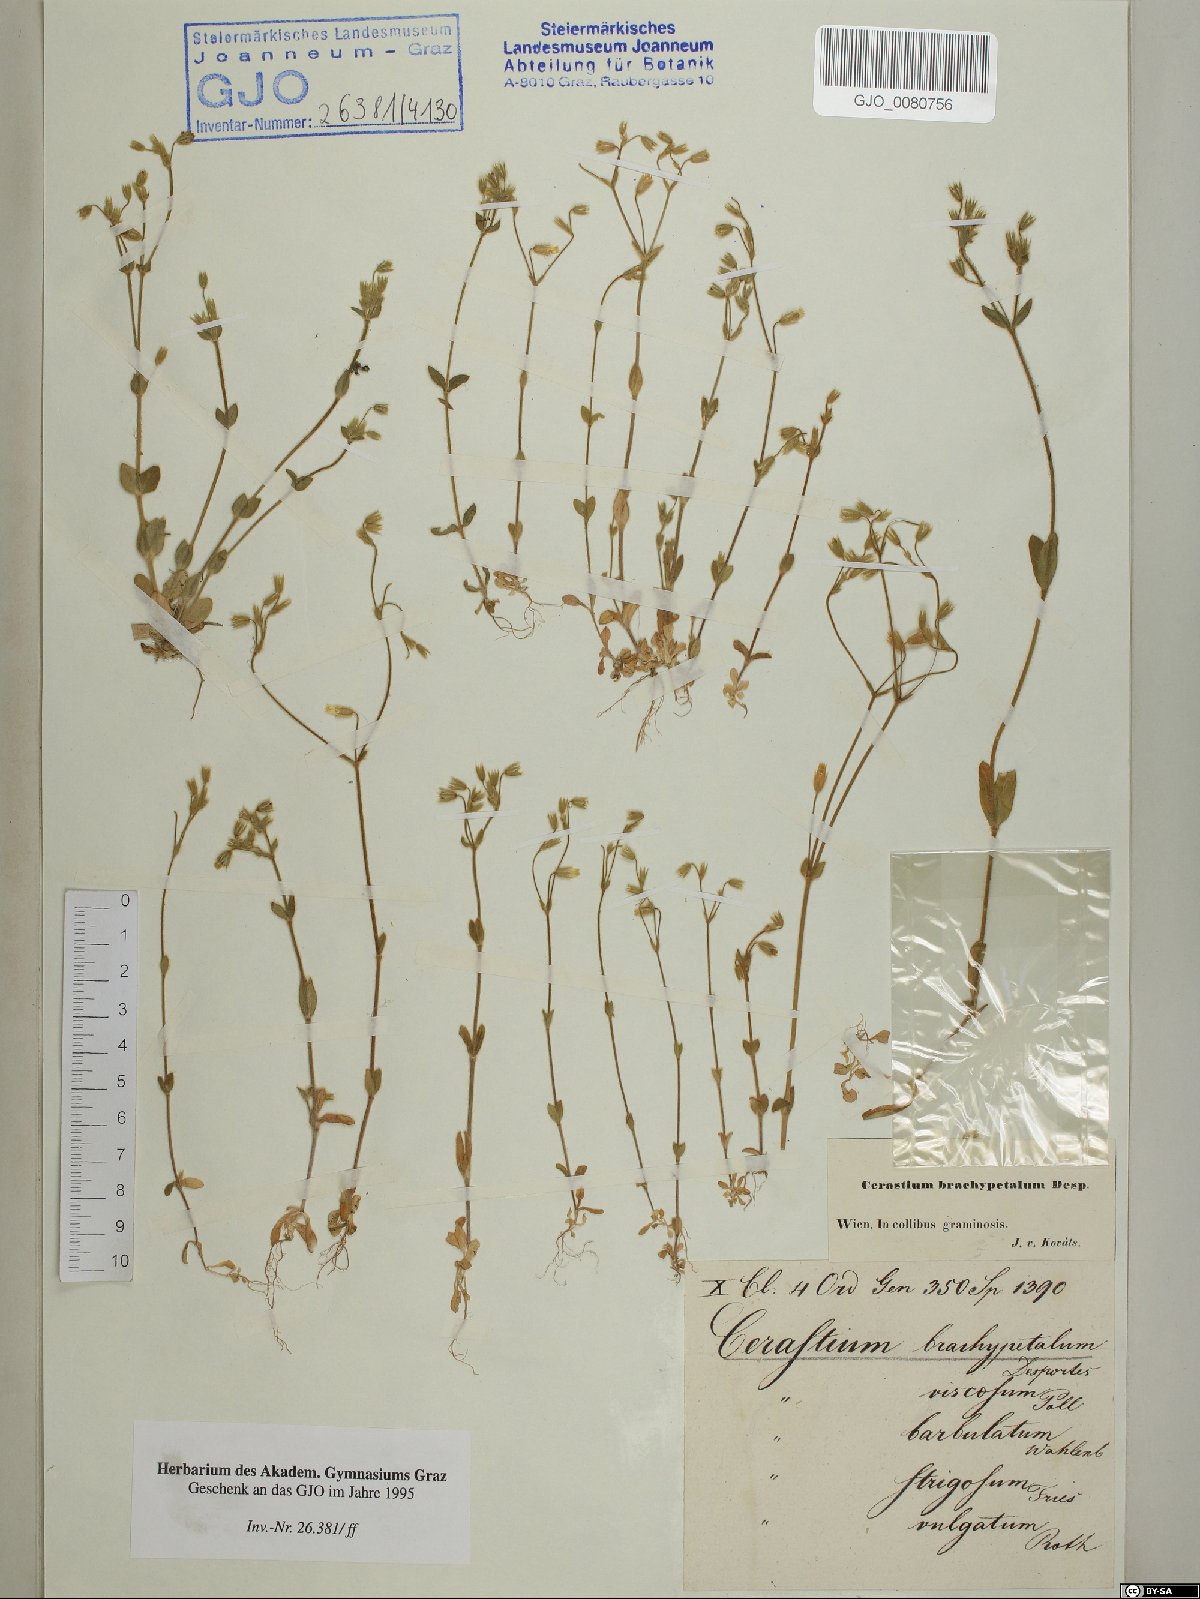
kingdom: Plantae
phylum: Tracheophyta
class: Magnoliopsida
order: Caryophyllales
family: Caryophyllaceae
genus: Cerastium
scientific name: Cerastium brachypetalum
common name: Grey mouse-ear
